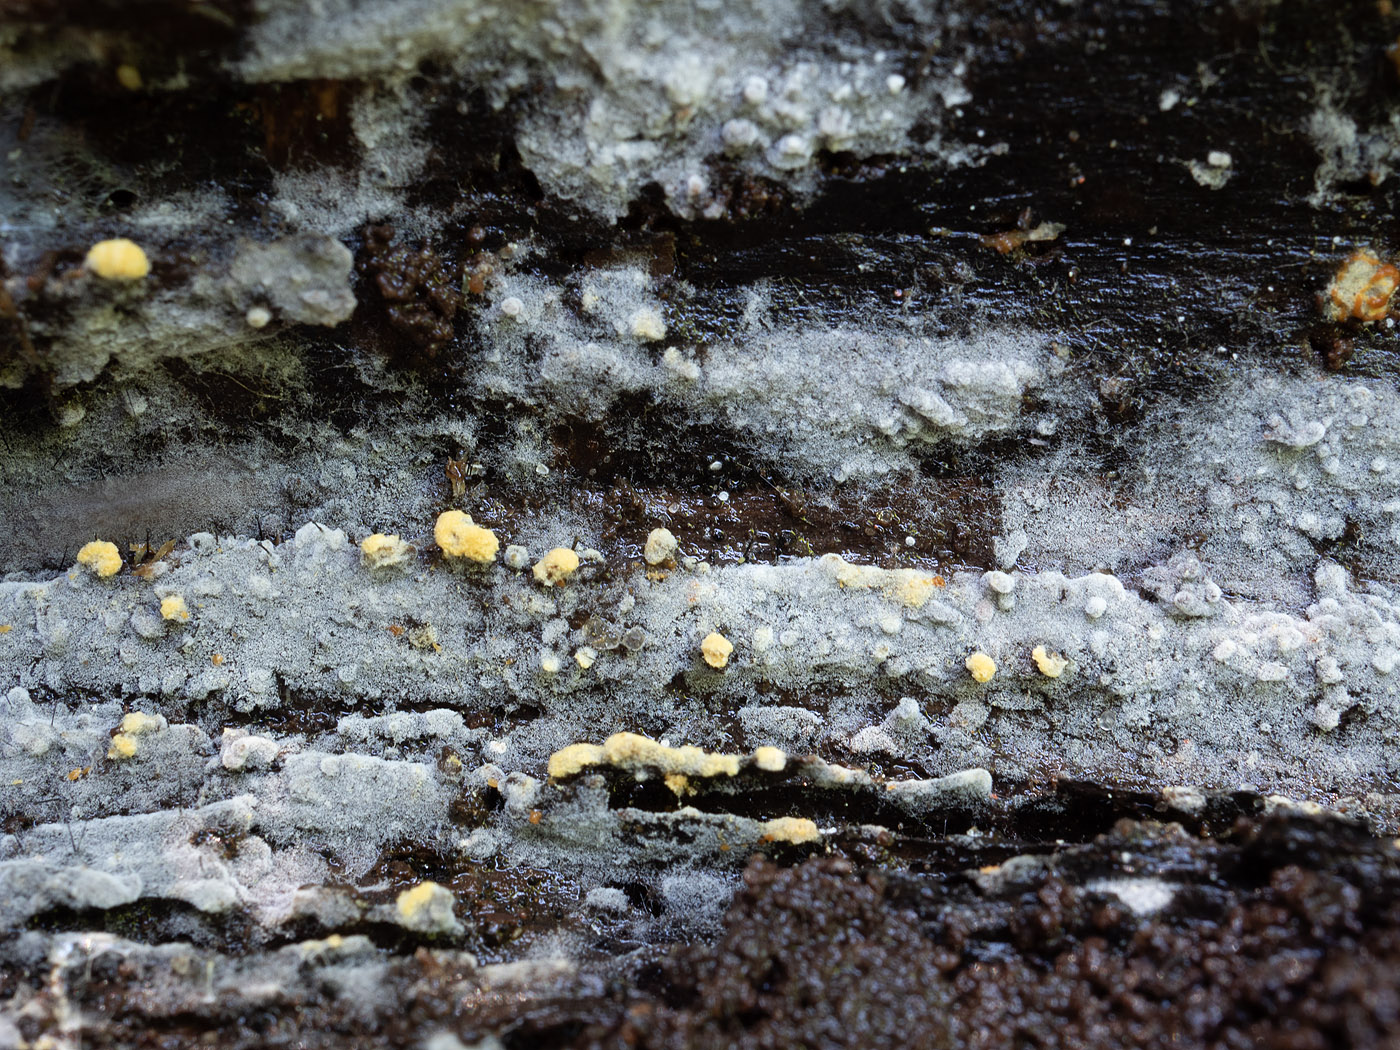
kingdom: Fungi
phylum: Basidiomycota
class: Agaricomycetes
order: Cantharellales
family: Botryobasidiaceae
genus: Botryobasidium
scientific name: Botryobasidium aureum
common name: gylden spindhinde
